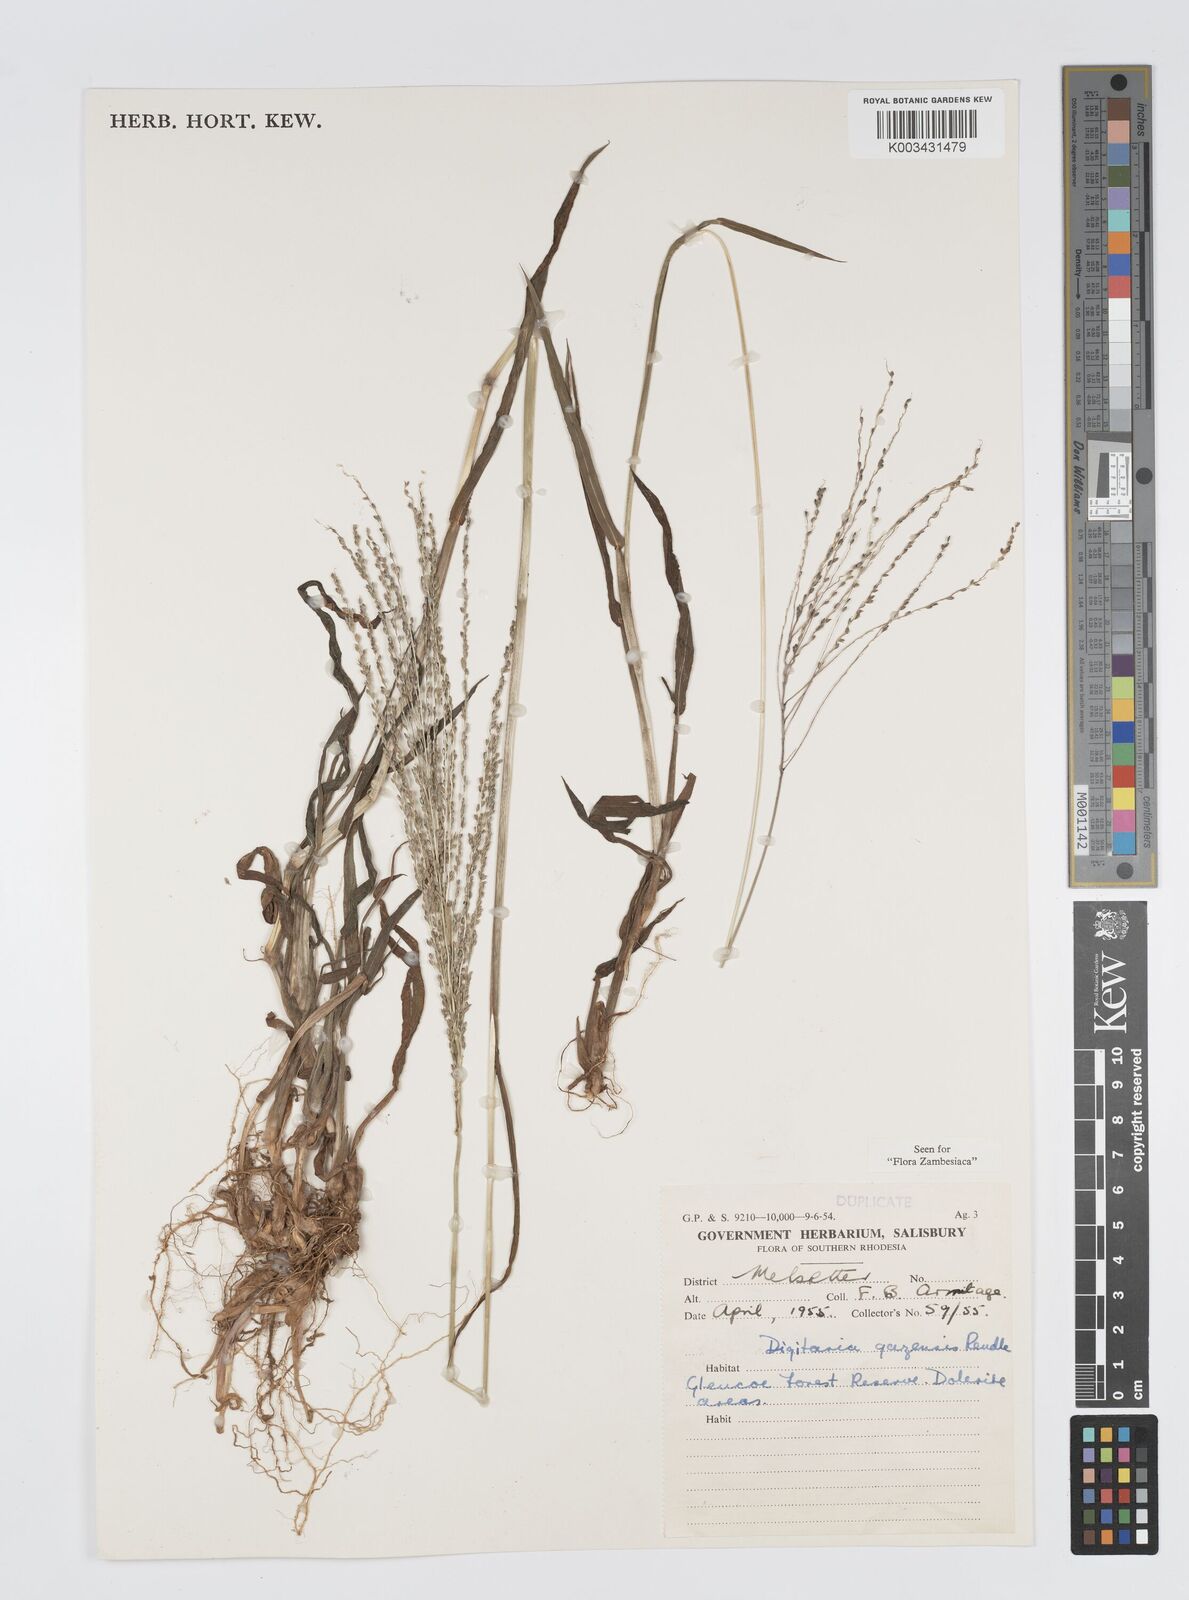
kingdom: Plantae
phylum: Tracheophyta
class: Liliopsida
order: Poales
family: Poaceae
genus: Digitaria
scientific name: Digitaria gazensis
